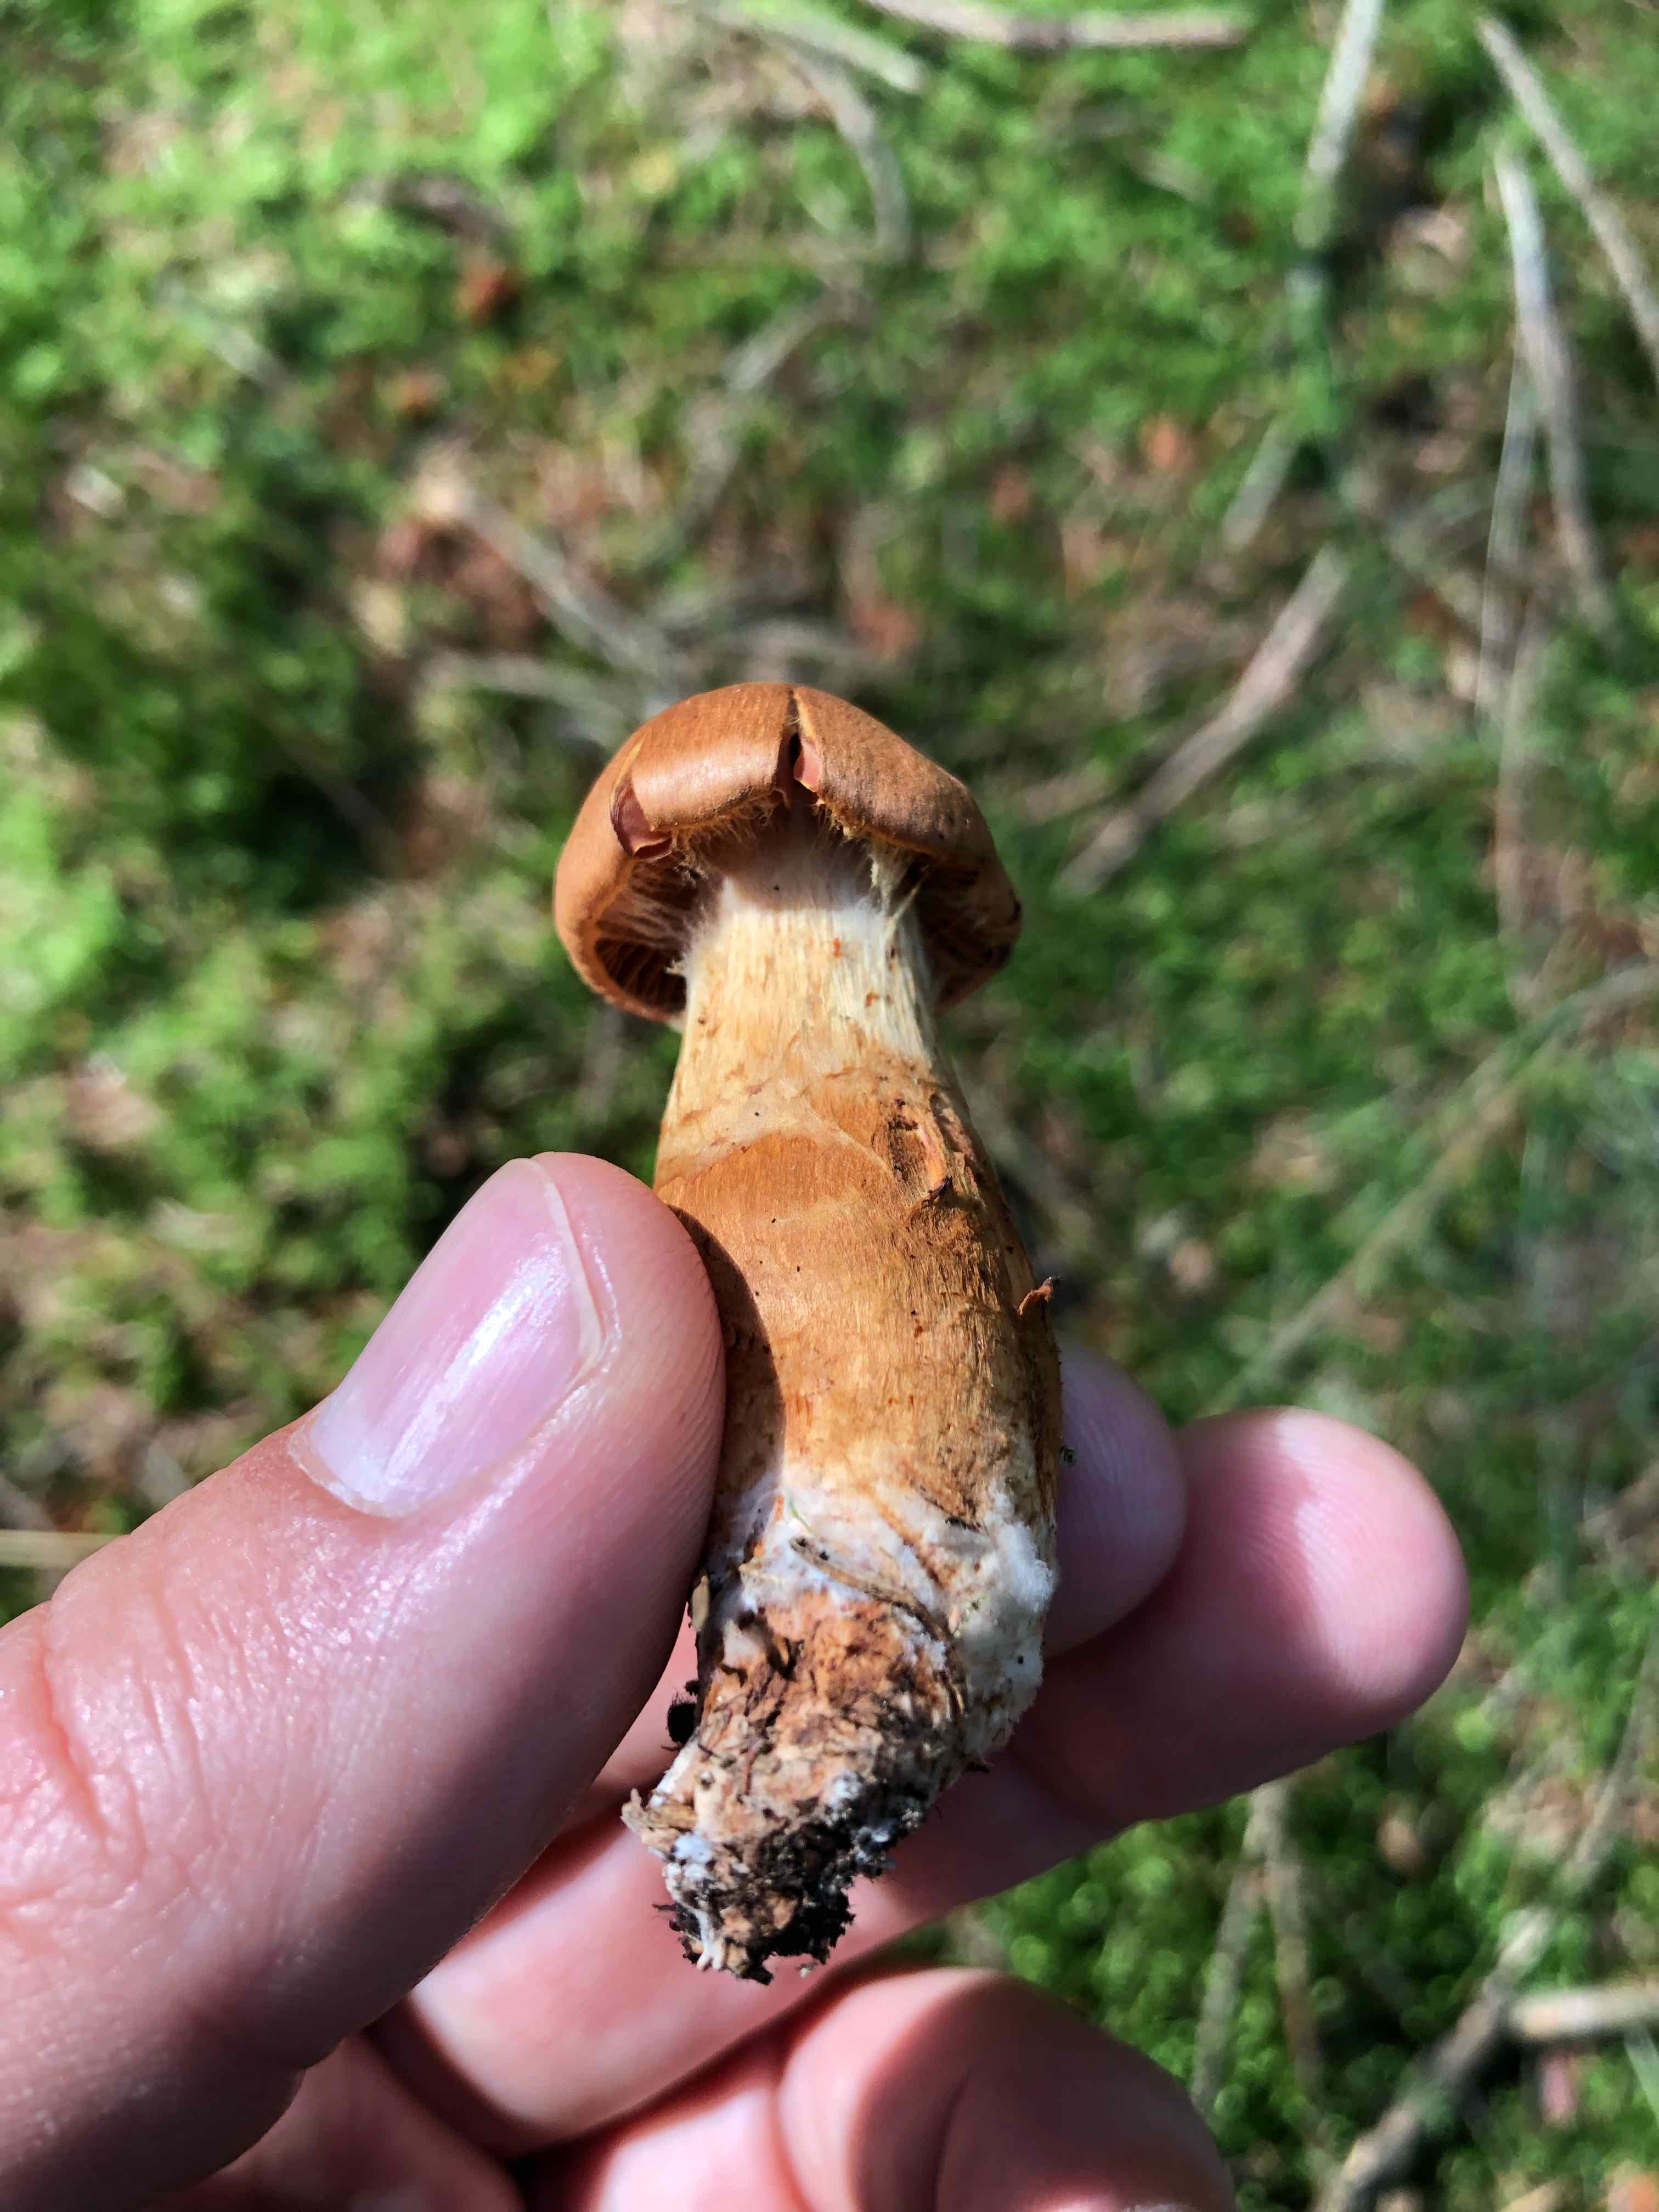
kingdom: Fungi
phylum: Basidiomycota
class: Agaricomycetes
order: Agaricales
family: Cortinariaceae
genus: Cortinarius
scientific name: Cortinarius rubellus
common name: puklet gift-slørhat
